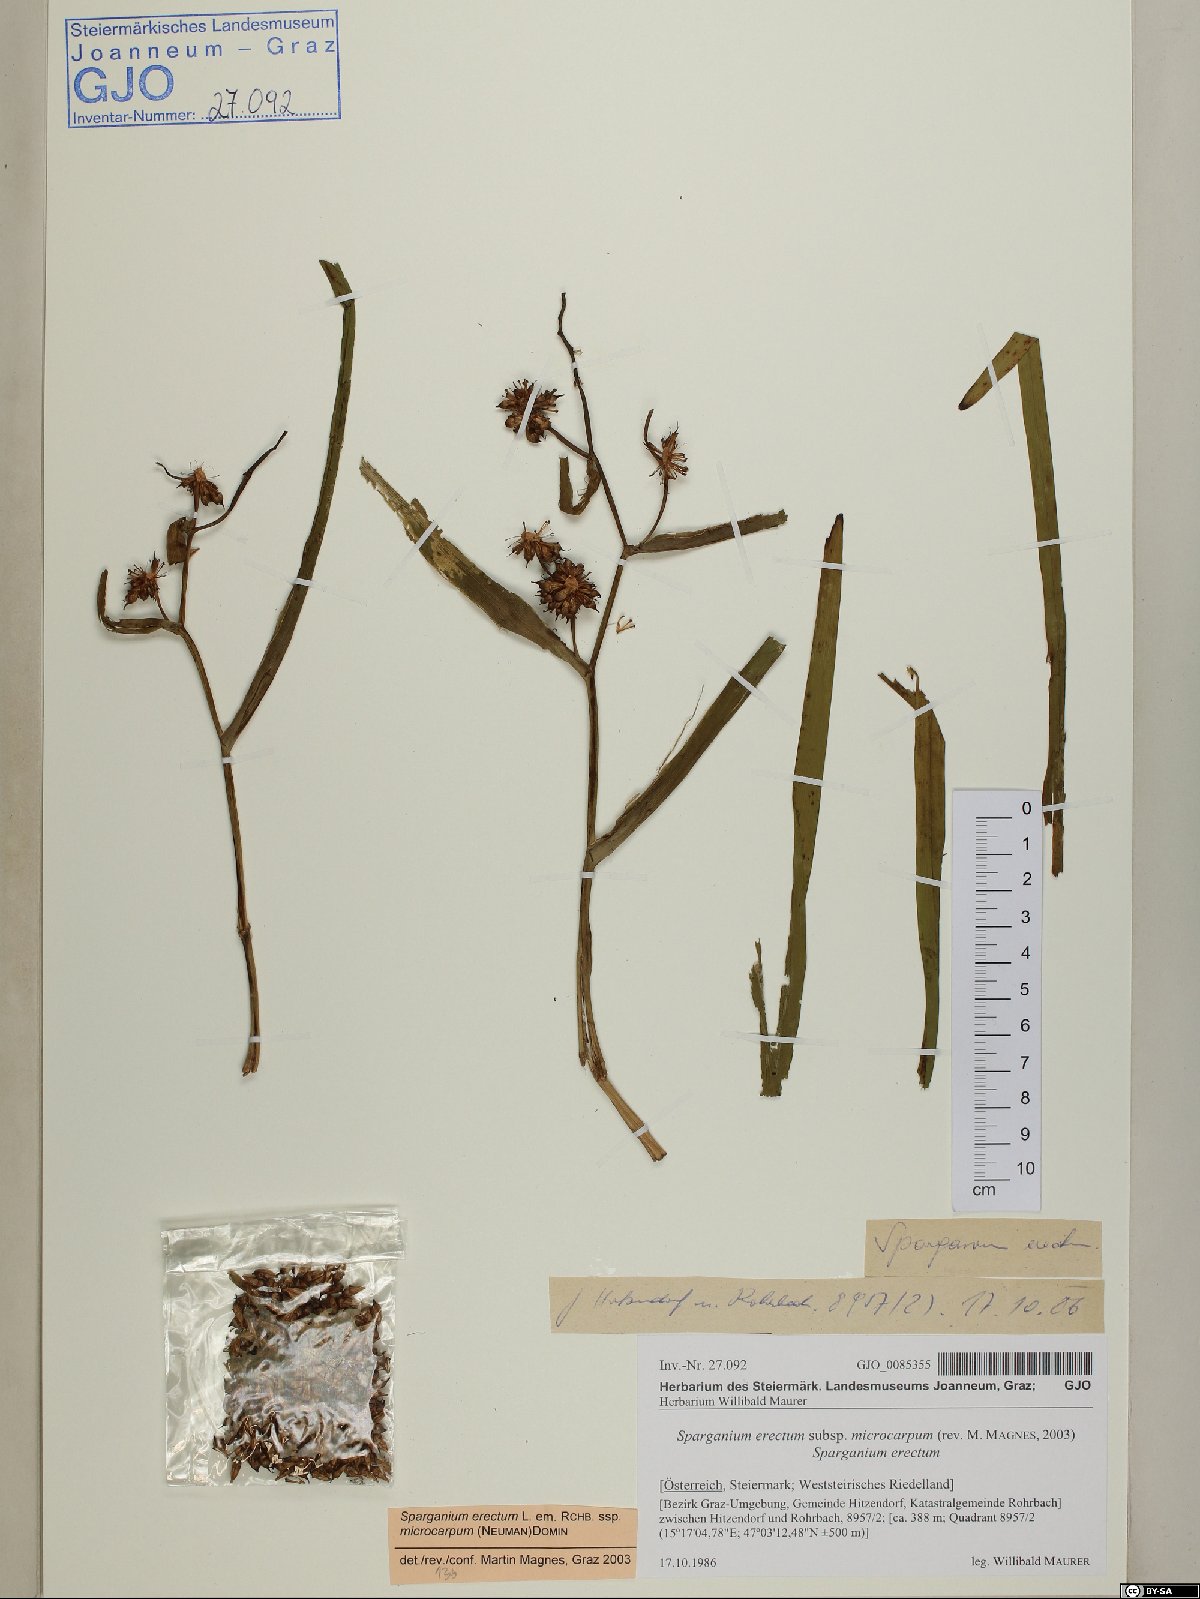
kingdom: Plantae
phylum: Tracheophyta
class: Liliopsida
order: Poales
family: Typhaceae
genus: Sparganium
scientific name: Sparganium erectum
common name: Branched bur-reed
